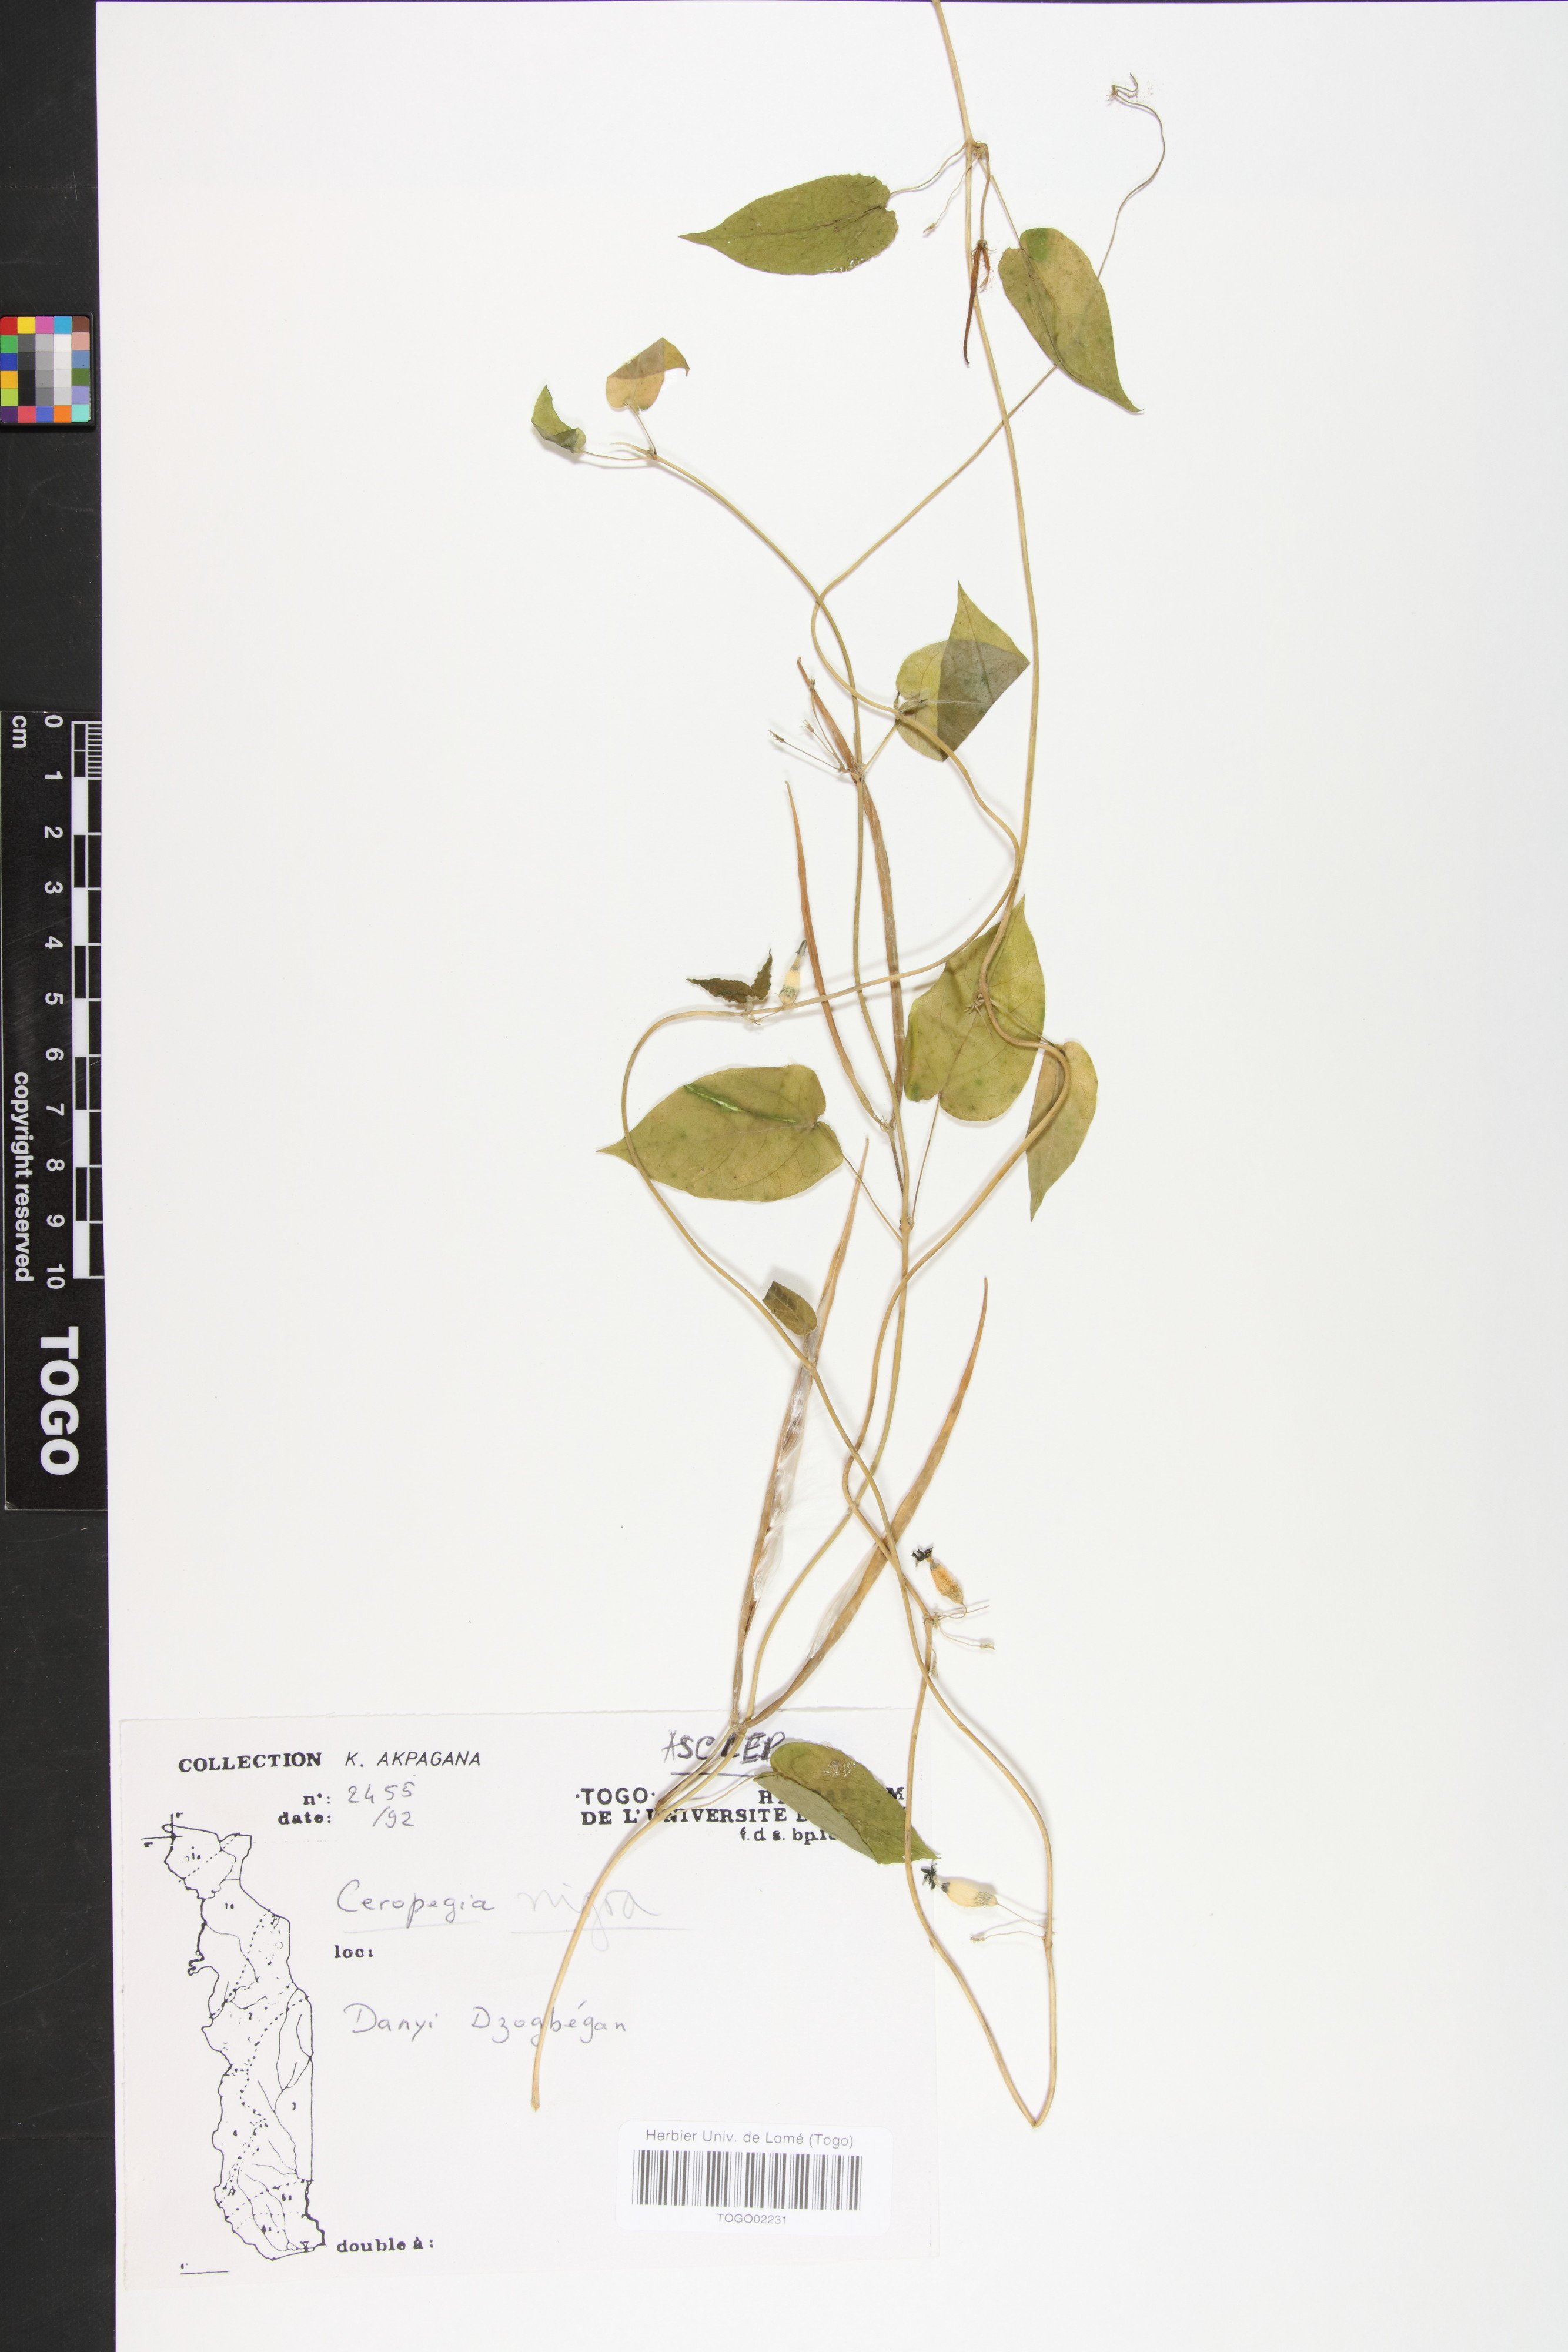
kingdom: Plantae
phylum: Tracheophyta
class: Magnoliopsida
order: Gentianales
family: Apocynaceae
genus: Ceropegia
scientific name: Ceropegia nigra
